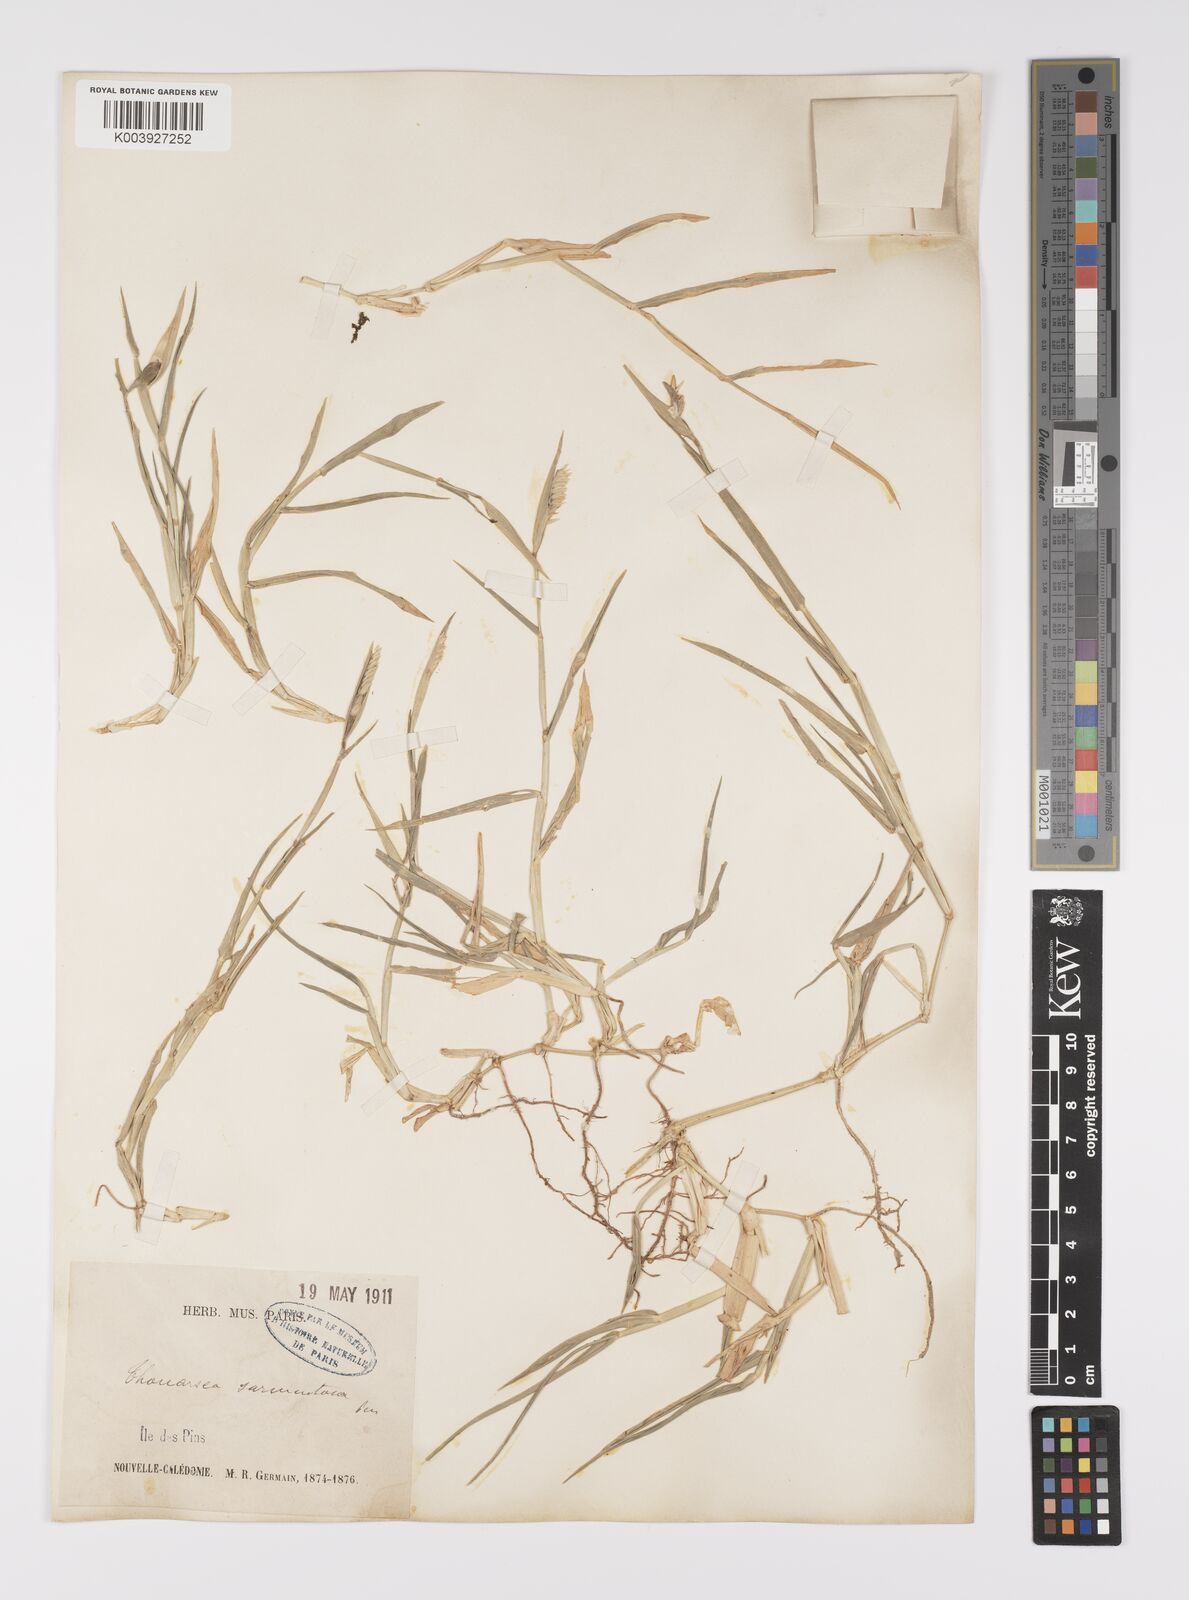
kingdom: Plantae
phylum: Tracheophyta
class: Liliopsida
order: Poales
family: Poaceae
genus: Thuarea
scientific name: Thuarea involuta
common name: Tropical beach grass
